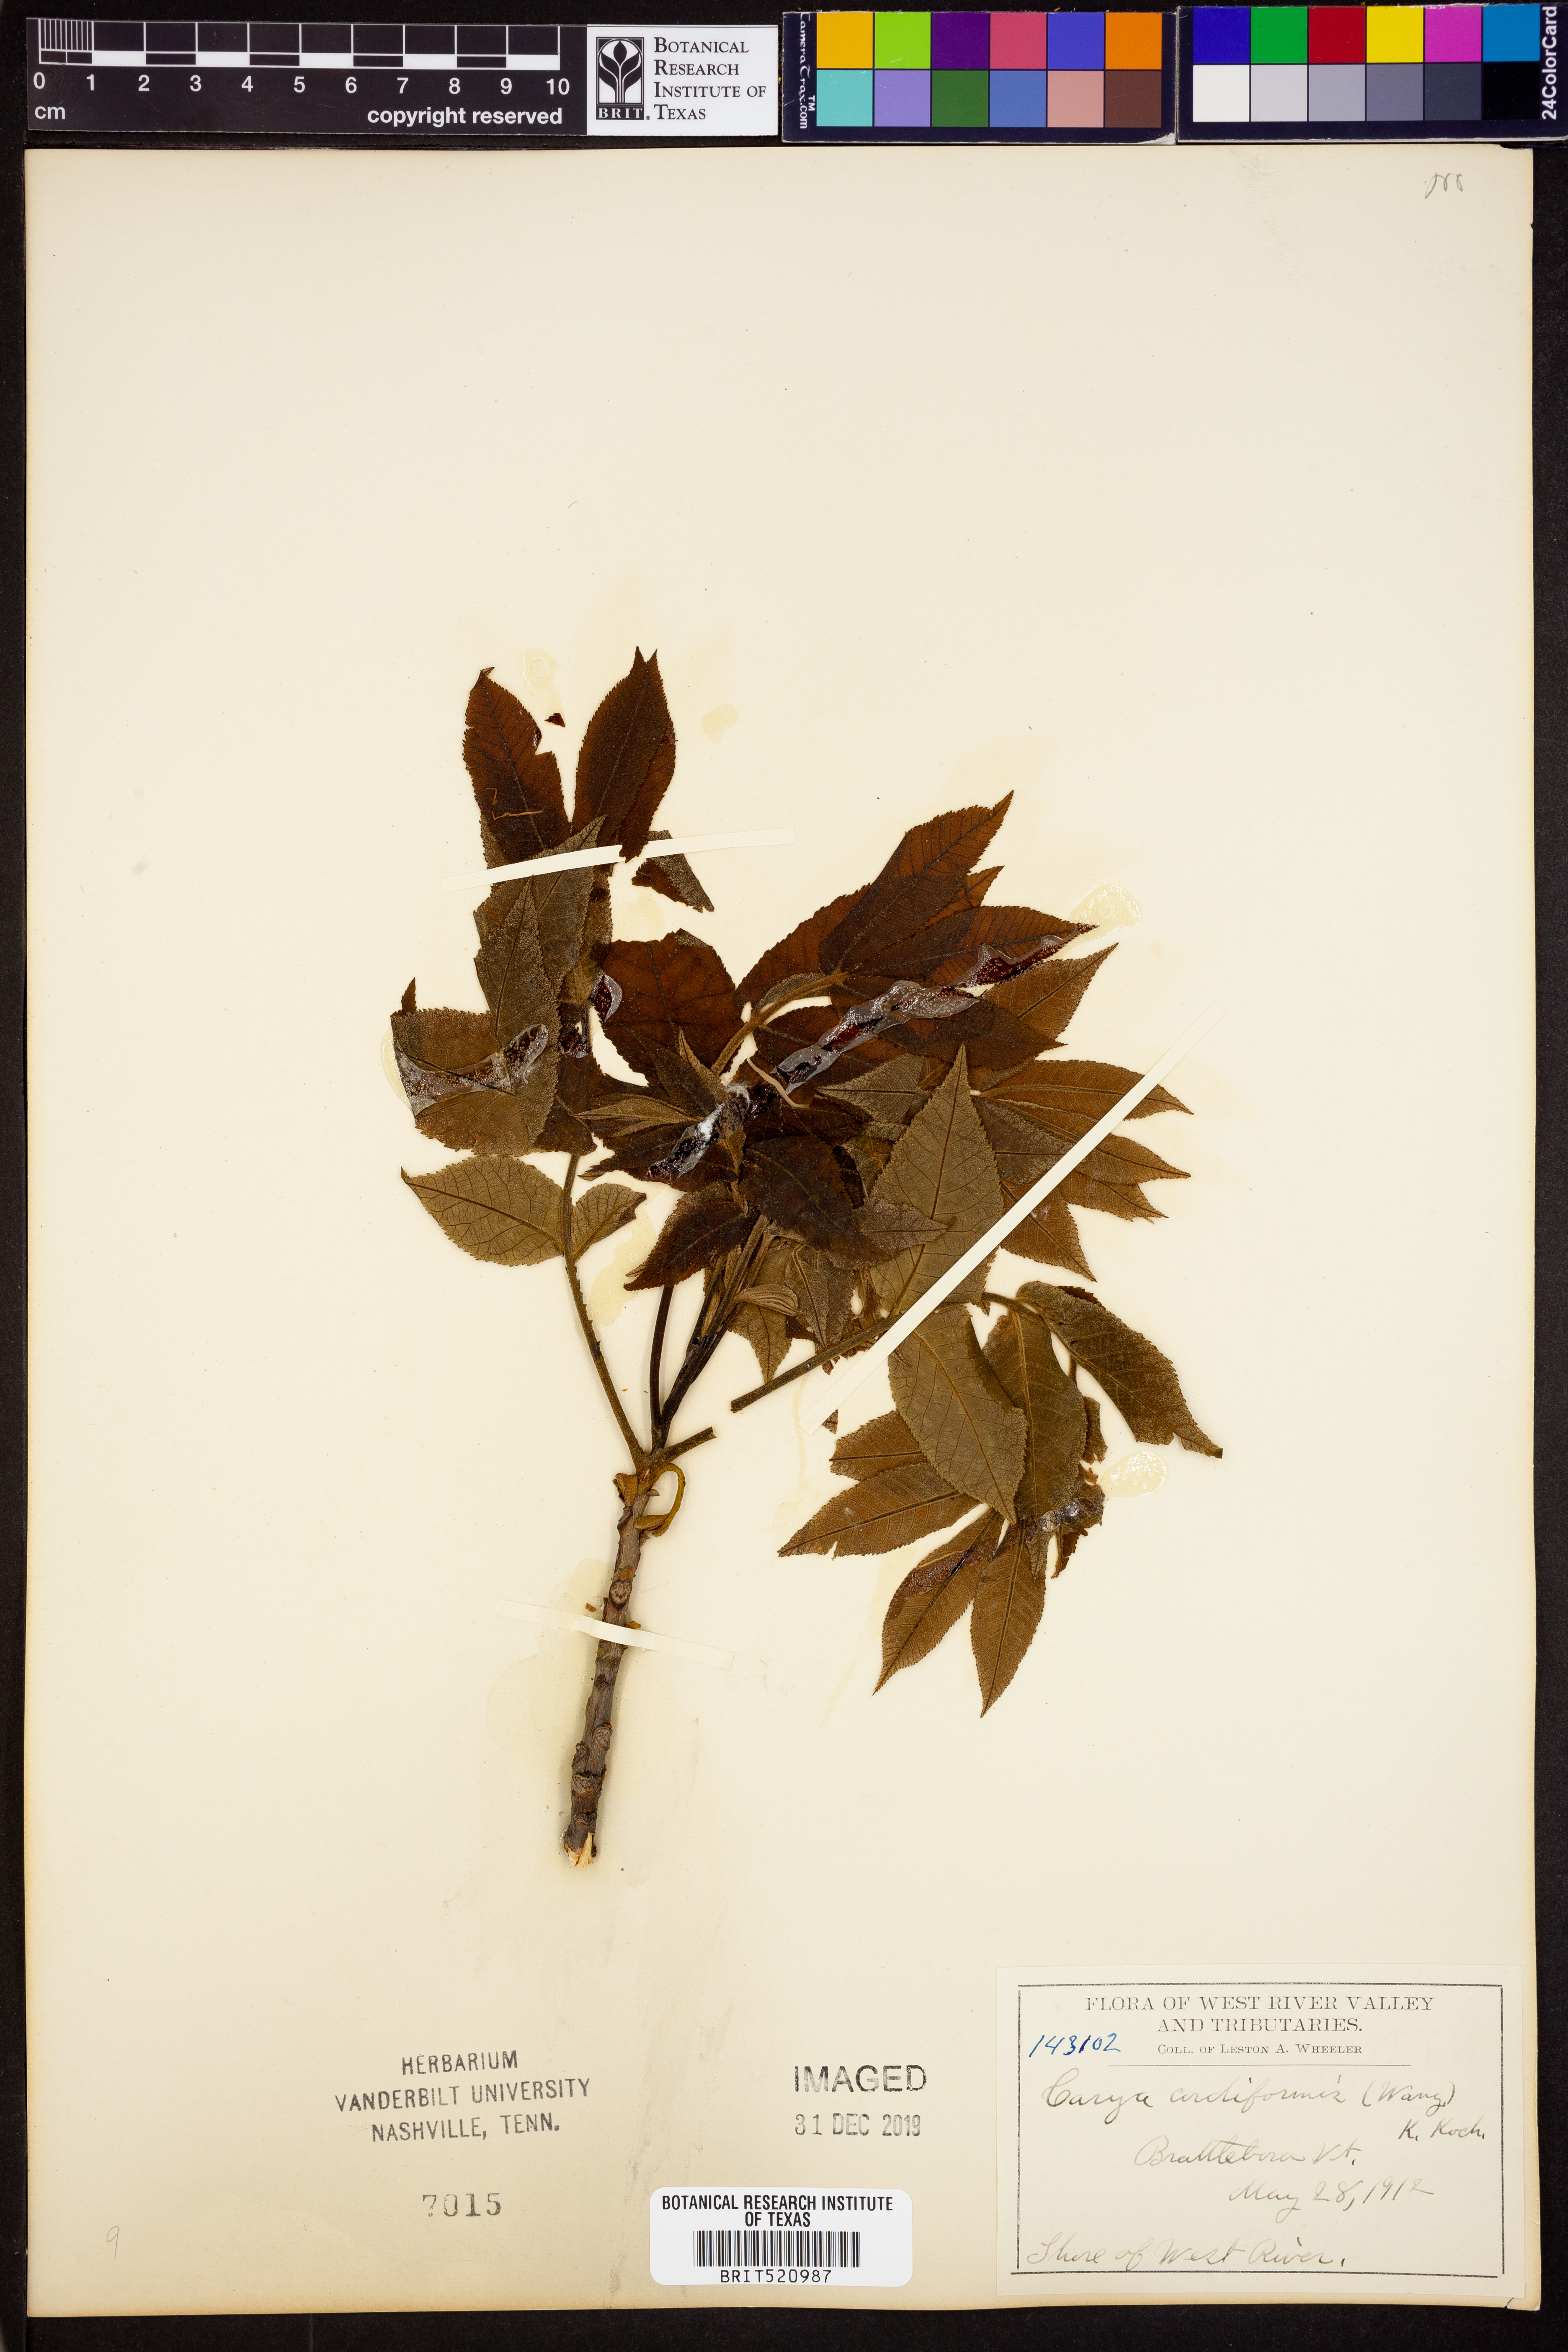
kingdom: Plantae
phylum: Tracheophyta
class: Magnoliopsida
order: Fagales
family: Juglandaceae
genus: Carya
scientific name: Carya cordiformis
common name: Bitternut hickory
